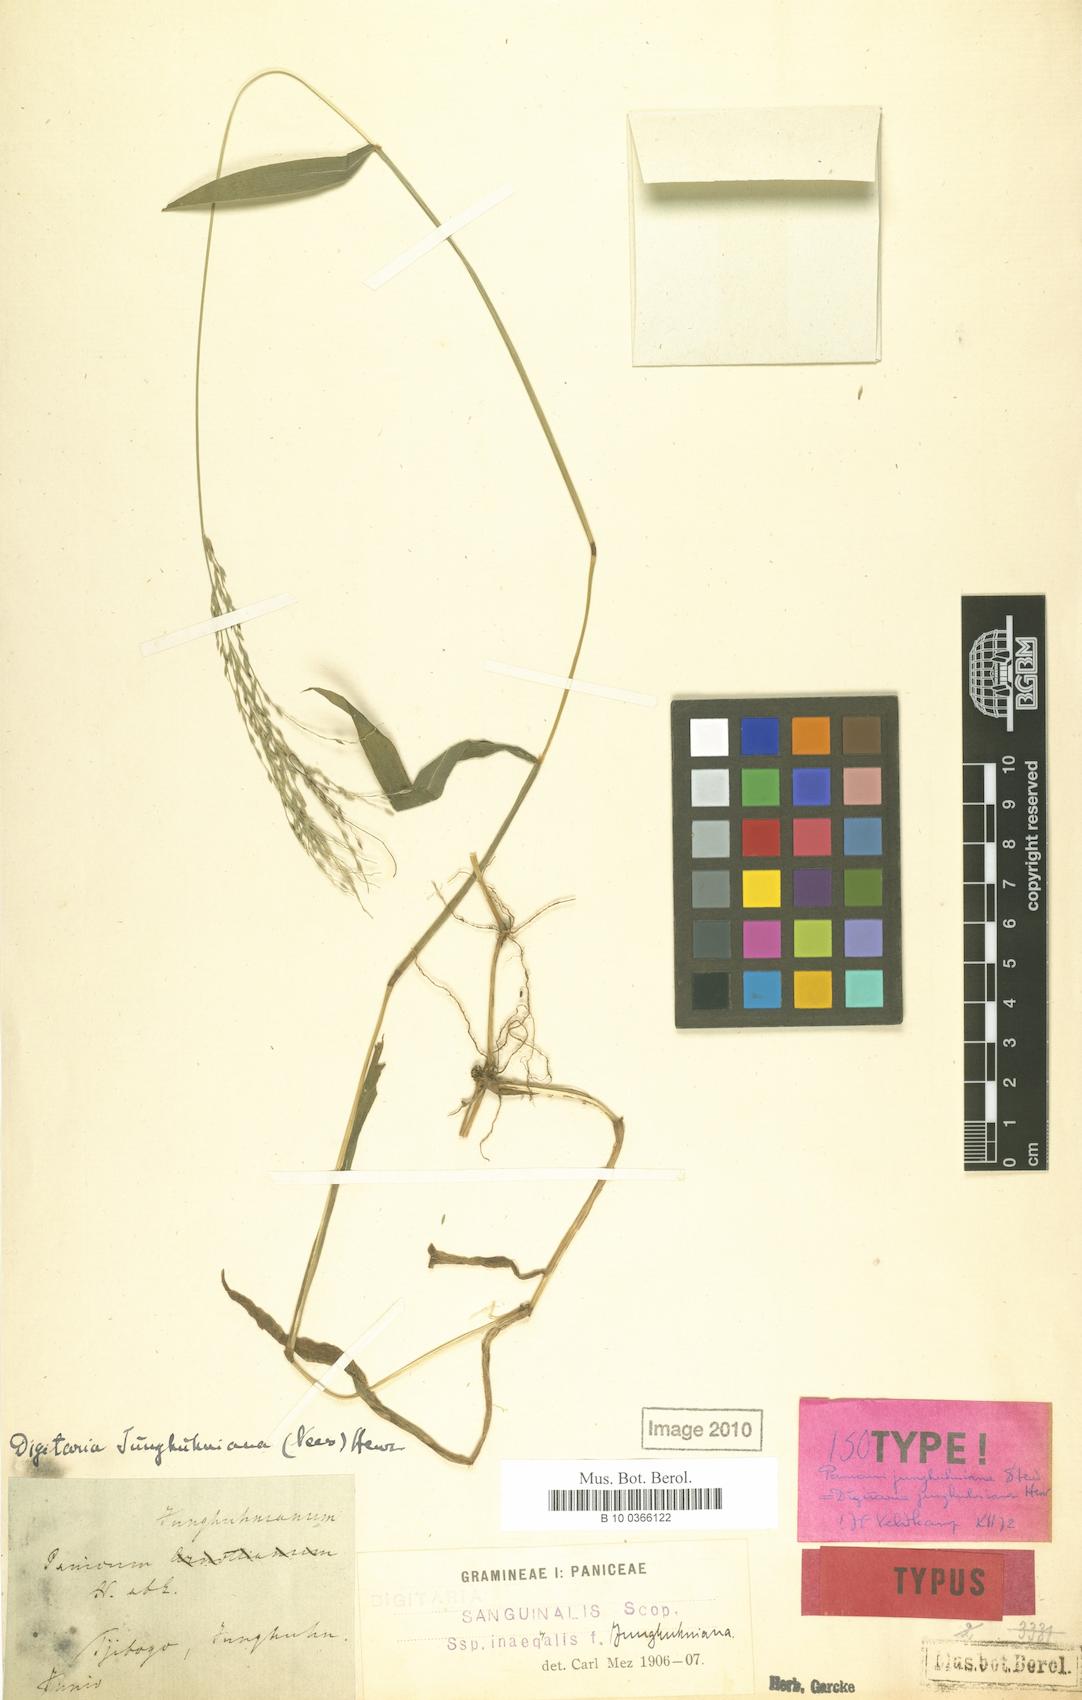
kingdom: Plantae
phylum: Tracheophyta
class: Liliopsida
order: Poales
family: Poaceae
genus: Digitaria
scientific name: Digitaria junghuhniana
